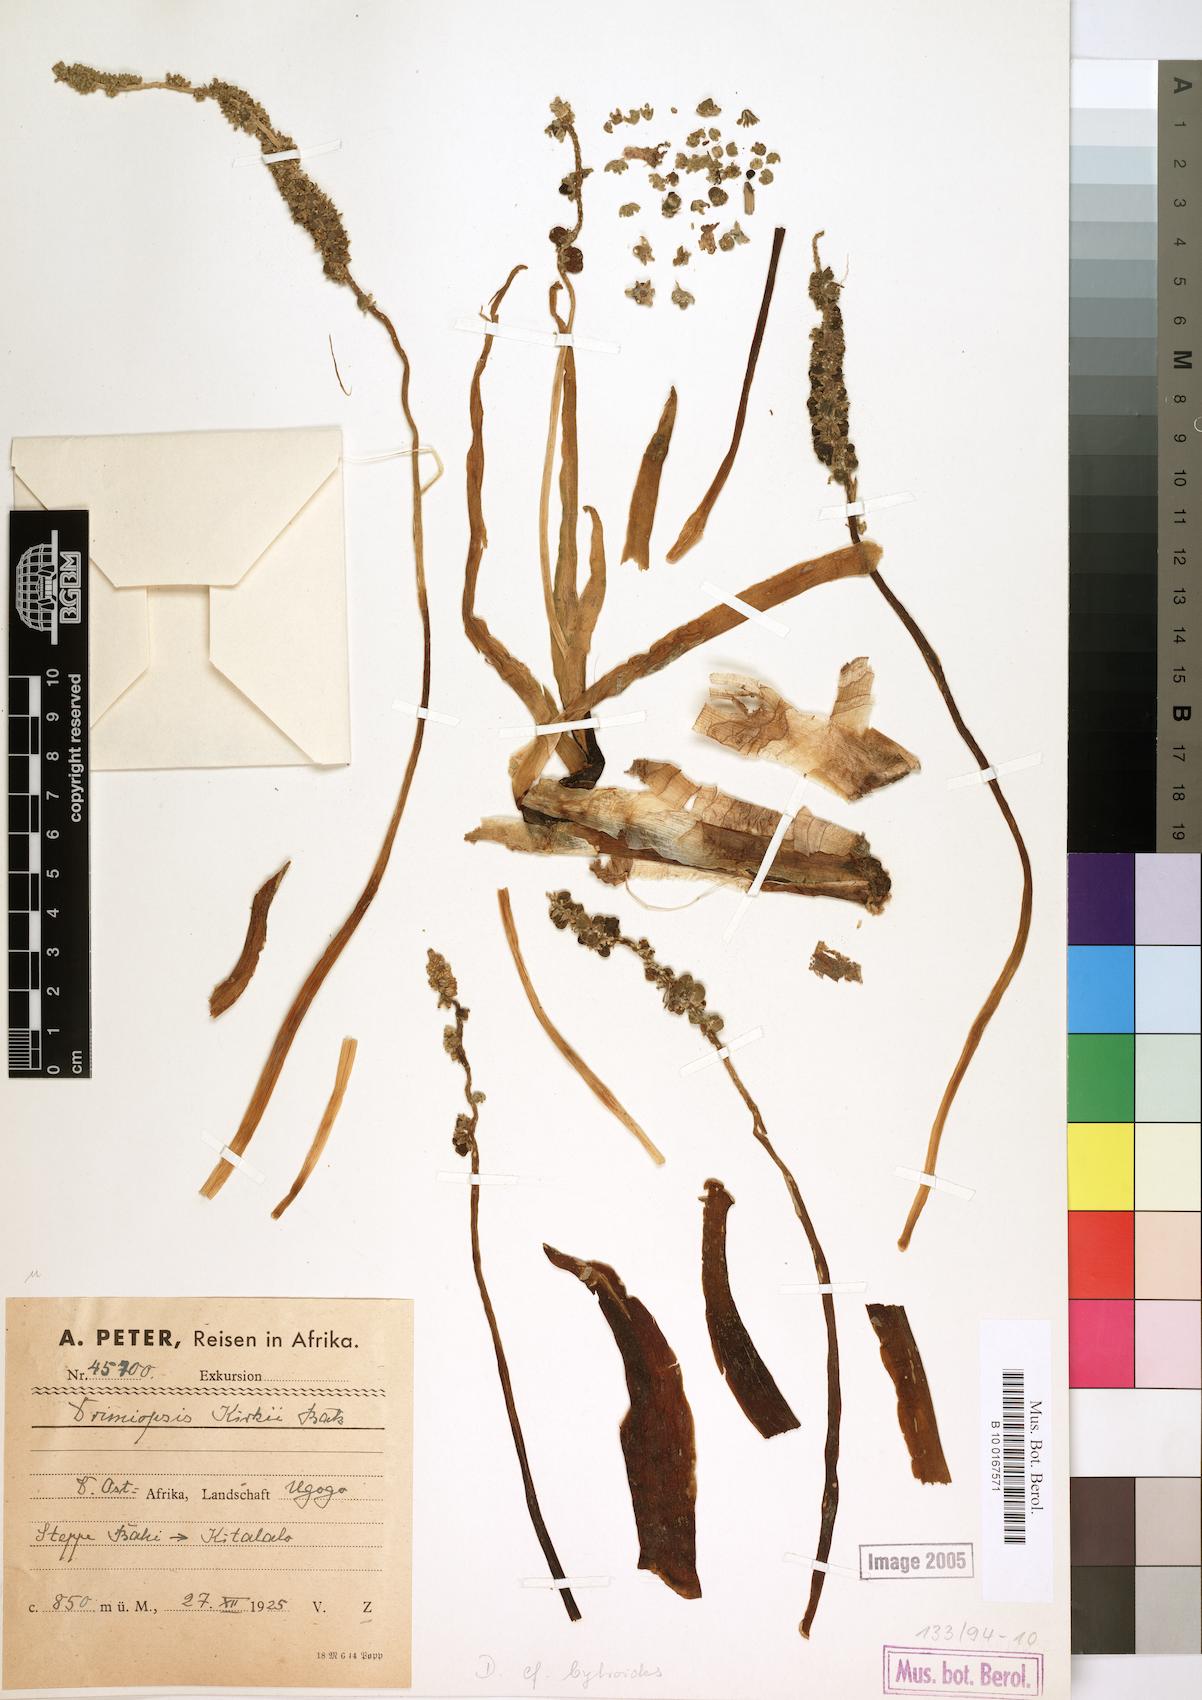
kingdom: Plantae
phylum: Tracheophyta
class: Liliopsida
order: Asparagales
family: Asparagaceae
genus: Drimiopsis
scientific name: Drimiopsis botryoides
